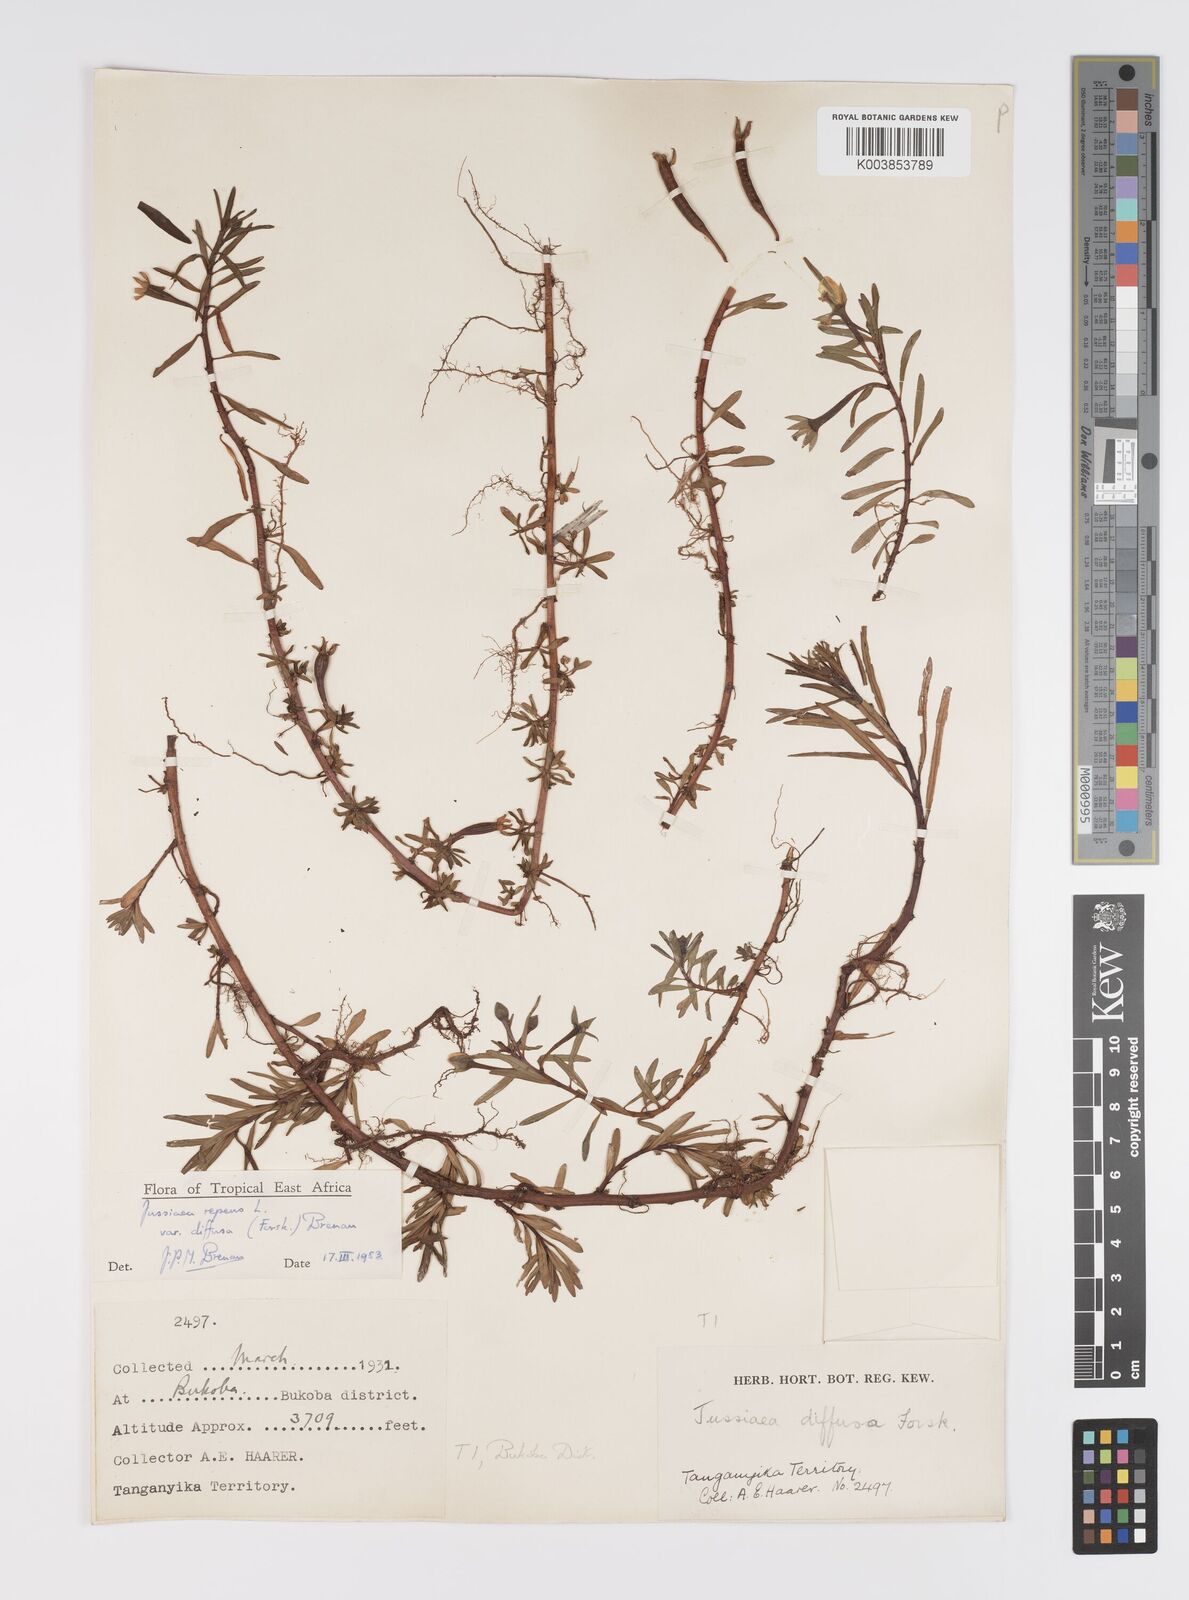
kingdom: Plantae
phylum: Tracheophyta
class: Magnoliopsida
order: Myrtales
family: Onagraceae
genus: Ludwigia
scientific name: Ludwigia repens
